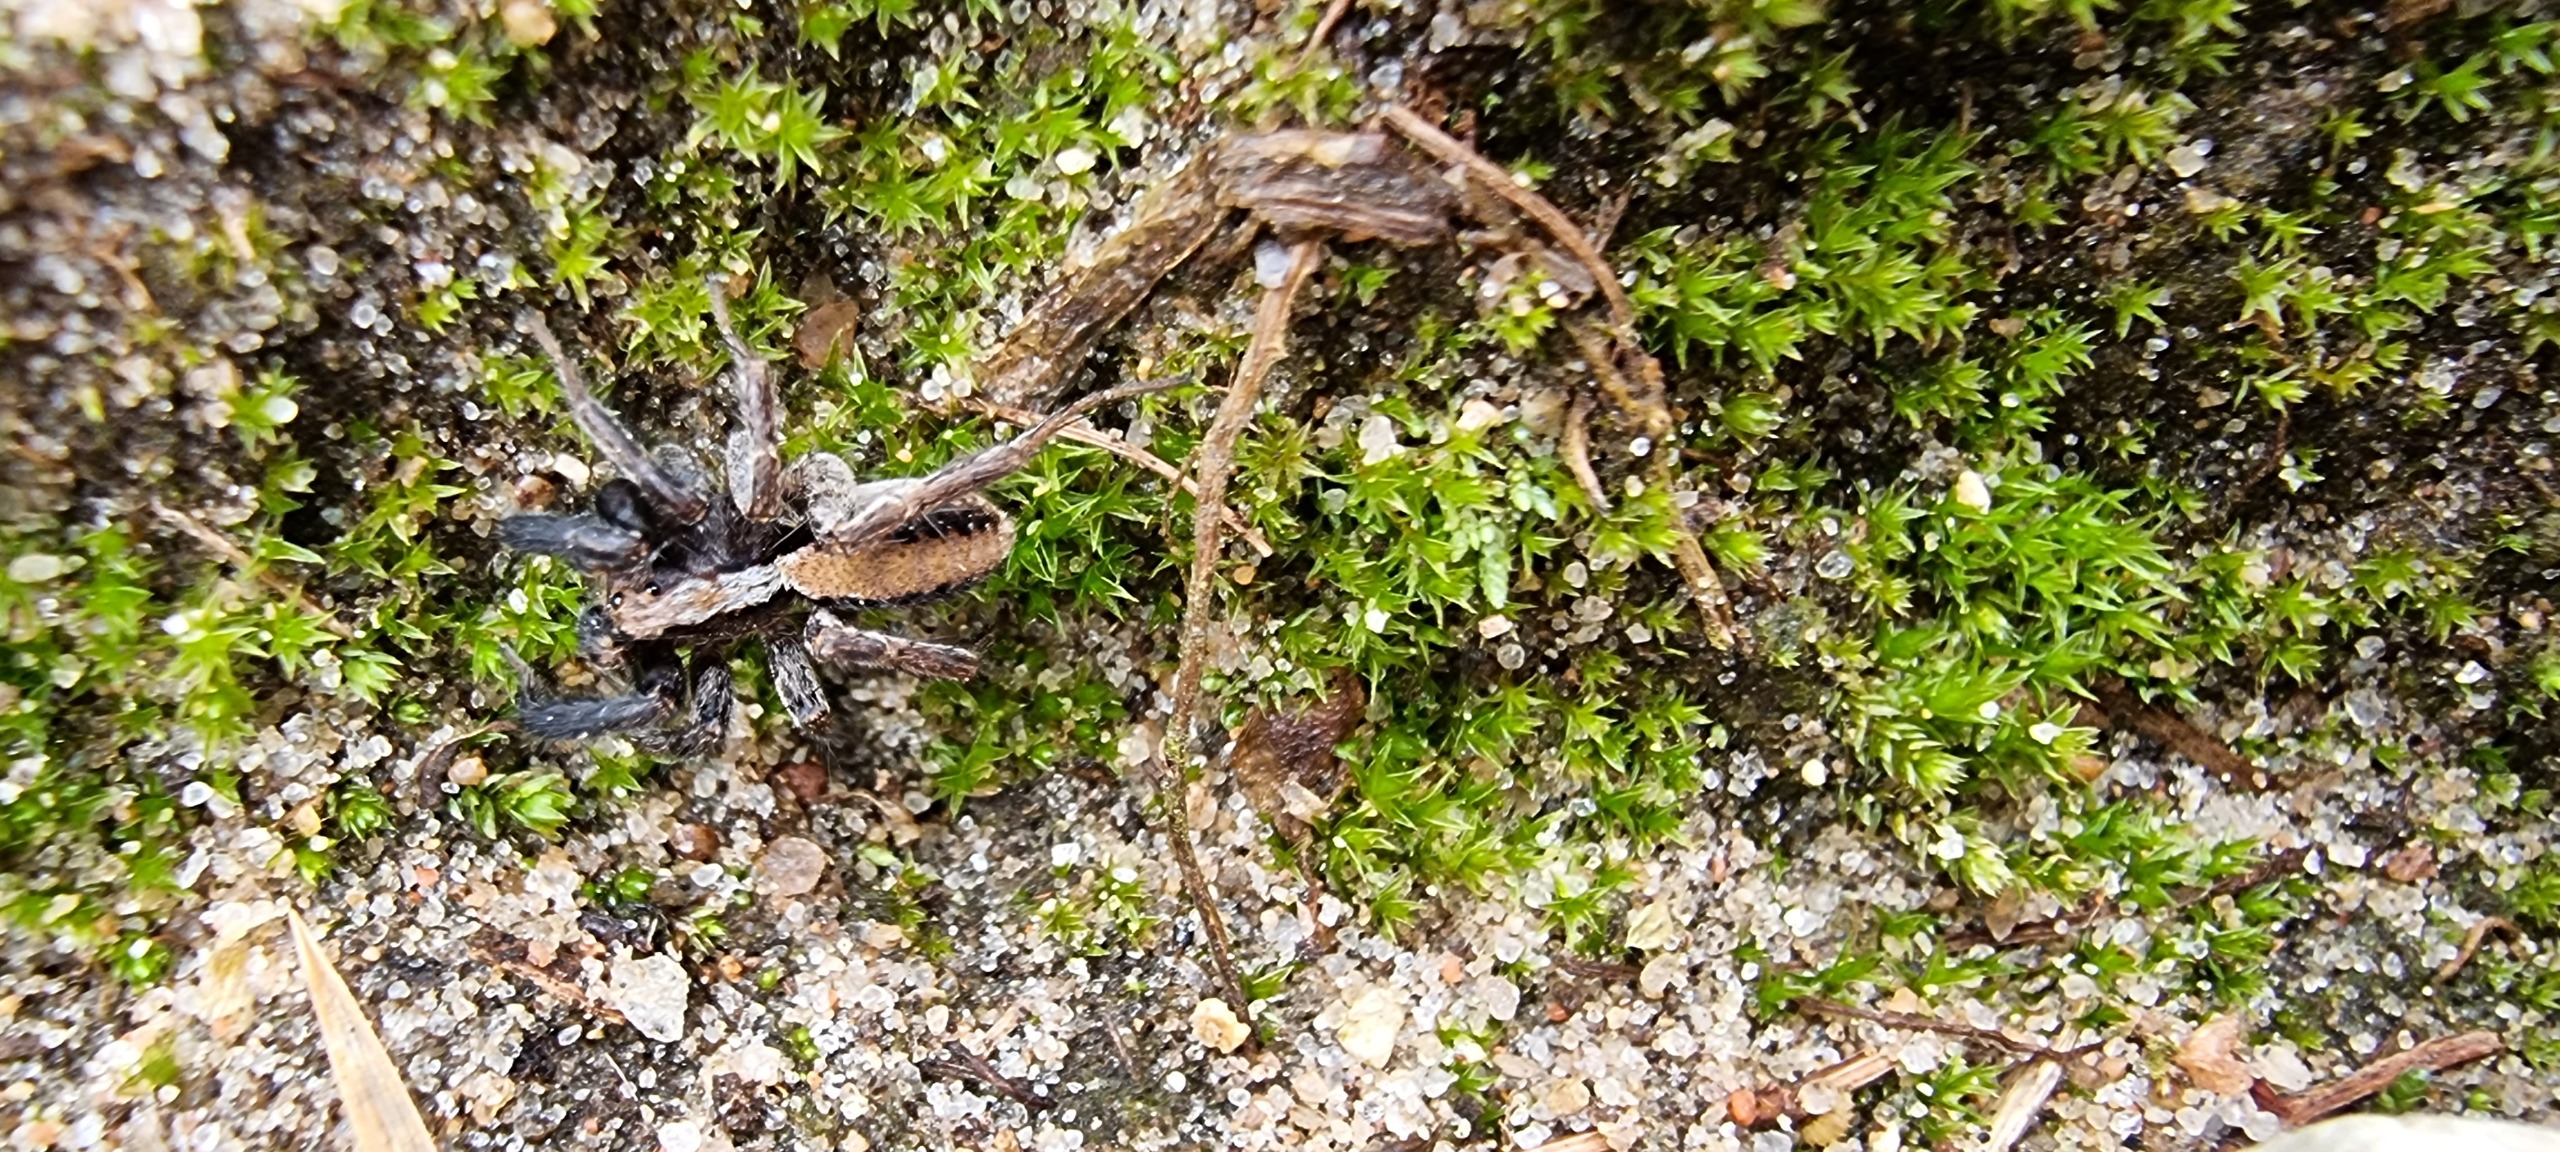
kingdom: Animalia
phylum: Arthropoda
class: Arachnida
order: Araneae
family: Lycosidae
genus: Alopecosa
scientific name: Alopecosa barbipes
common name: Klitkæmpejæger
